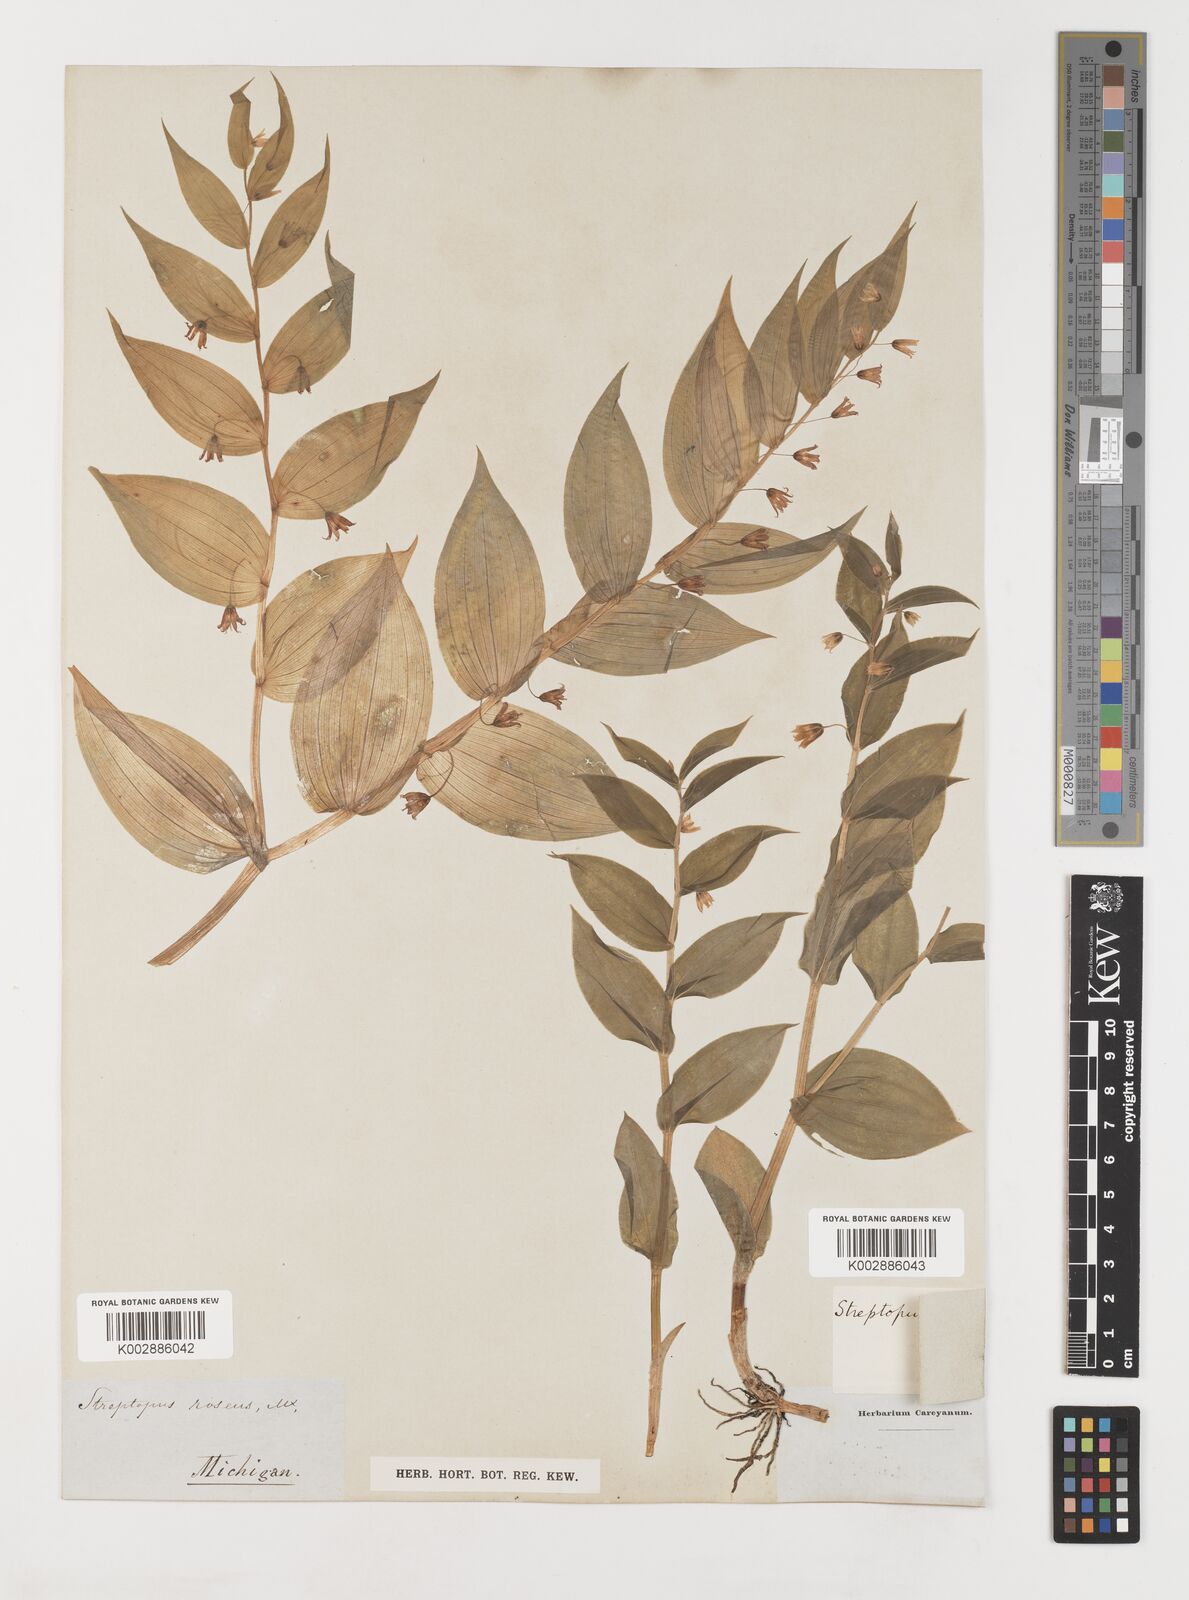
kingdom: Plantae
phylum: Tracheophyta
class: Liliopsida
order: Liliales
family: Liliaceae
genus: Streptopus
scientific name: Streptopus lanceolatus
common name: Rose mandarin
